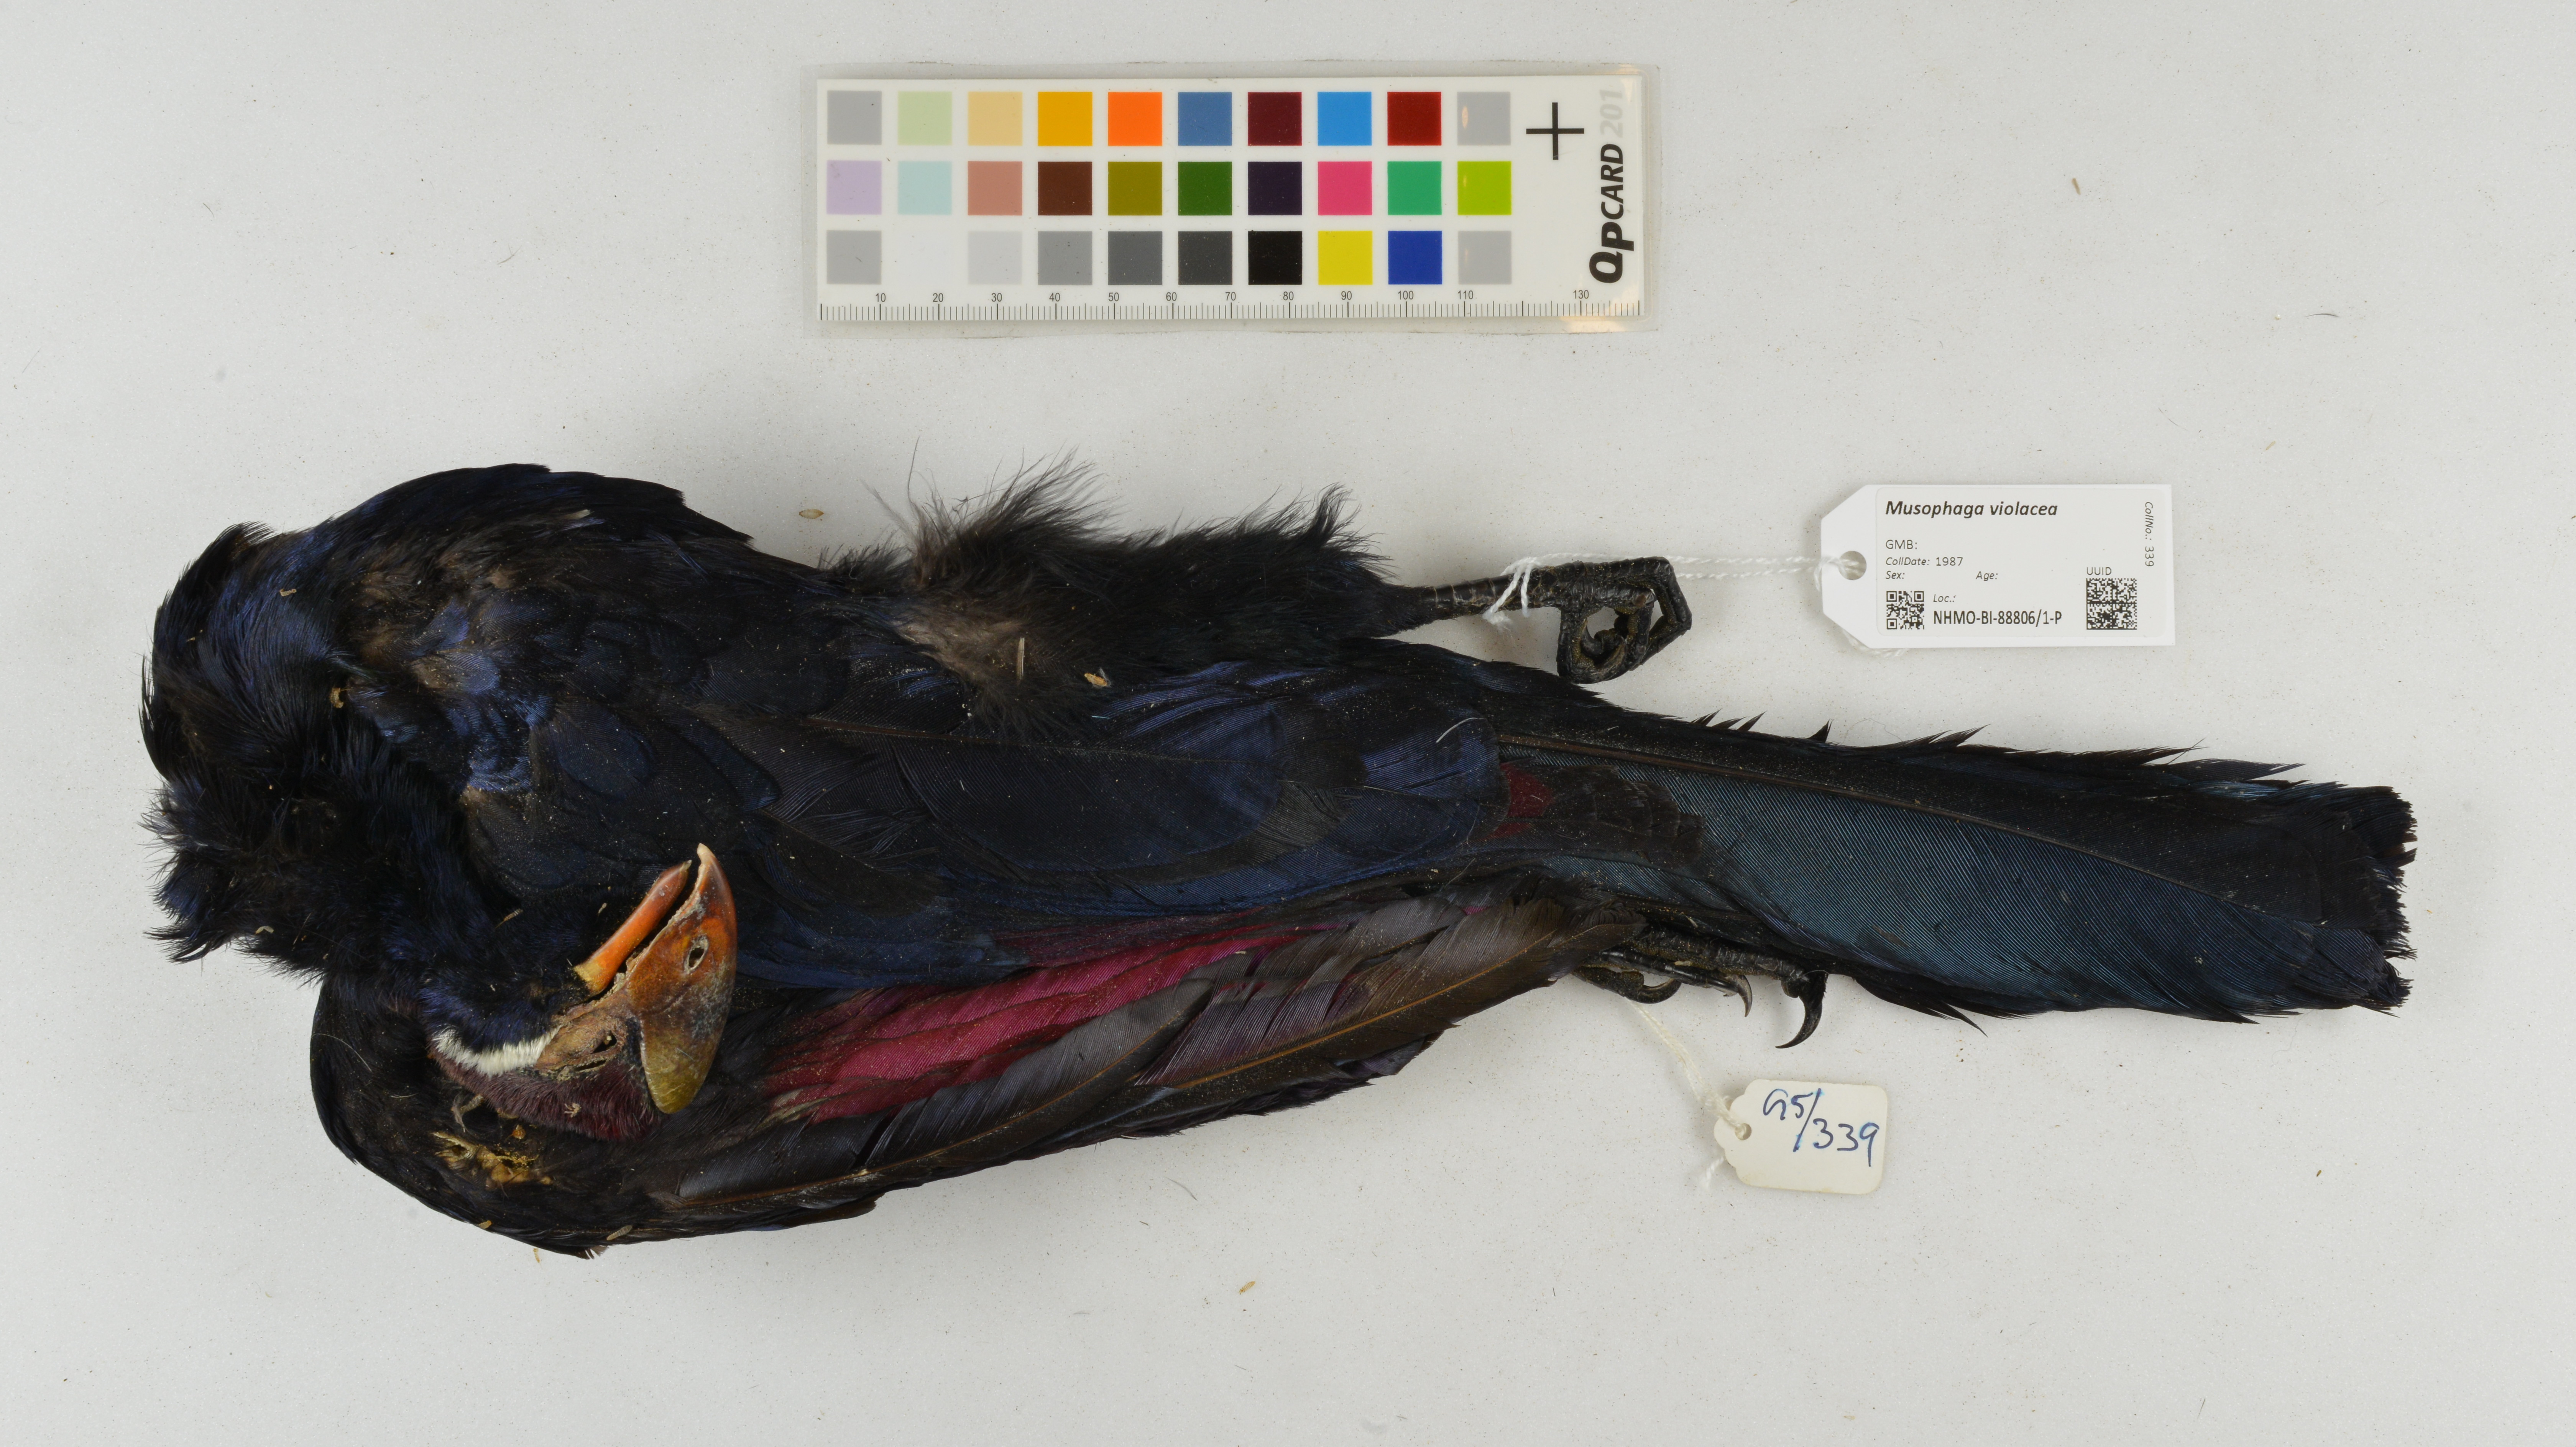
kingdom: Animalia
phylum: Chordata
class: Aves
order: Musophagiformes
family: Musophagidae
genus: Musophaga
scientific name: Musophaga violacea
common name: Violet turaco
